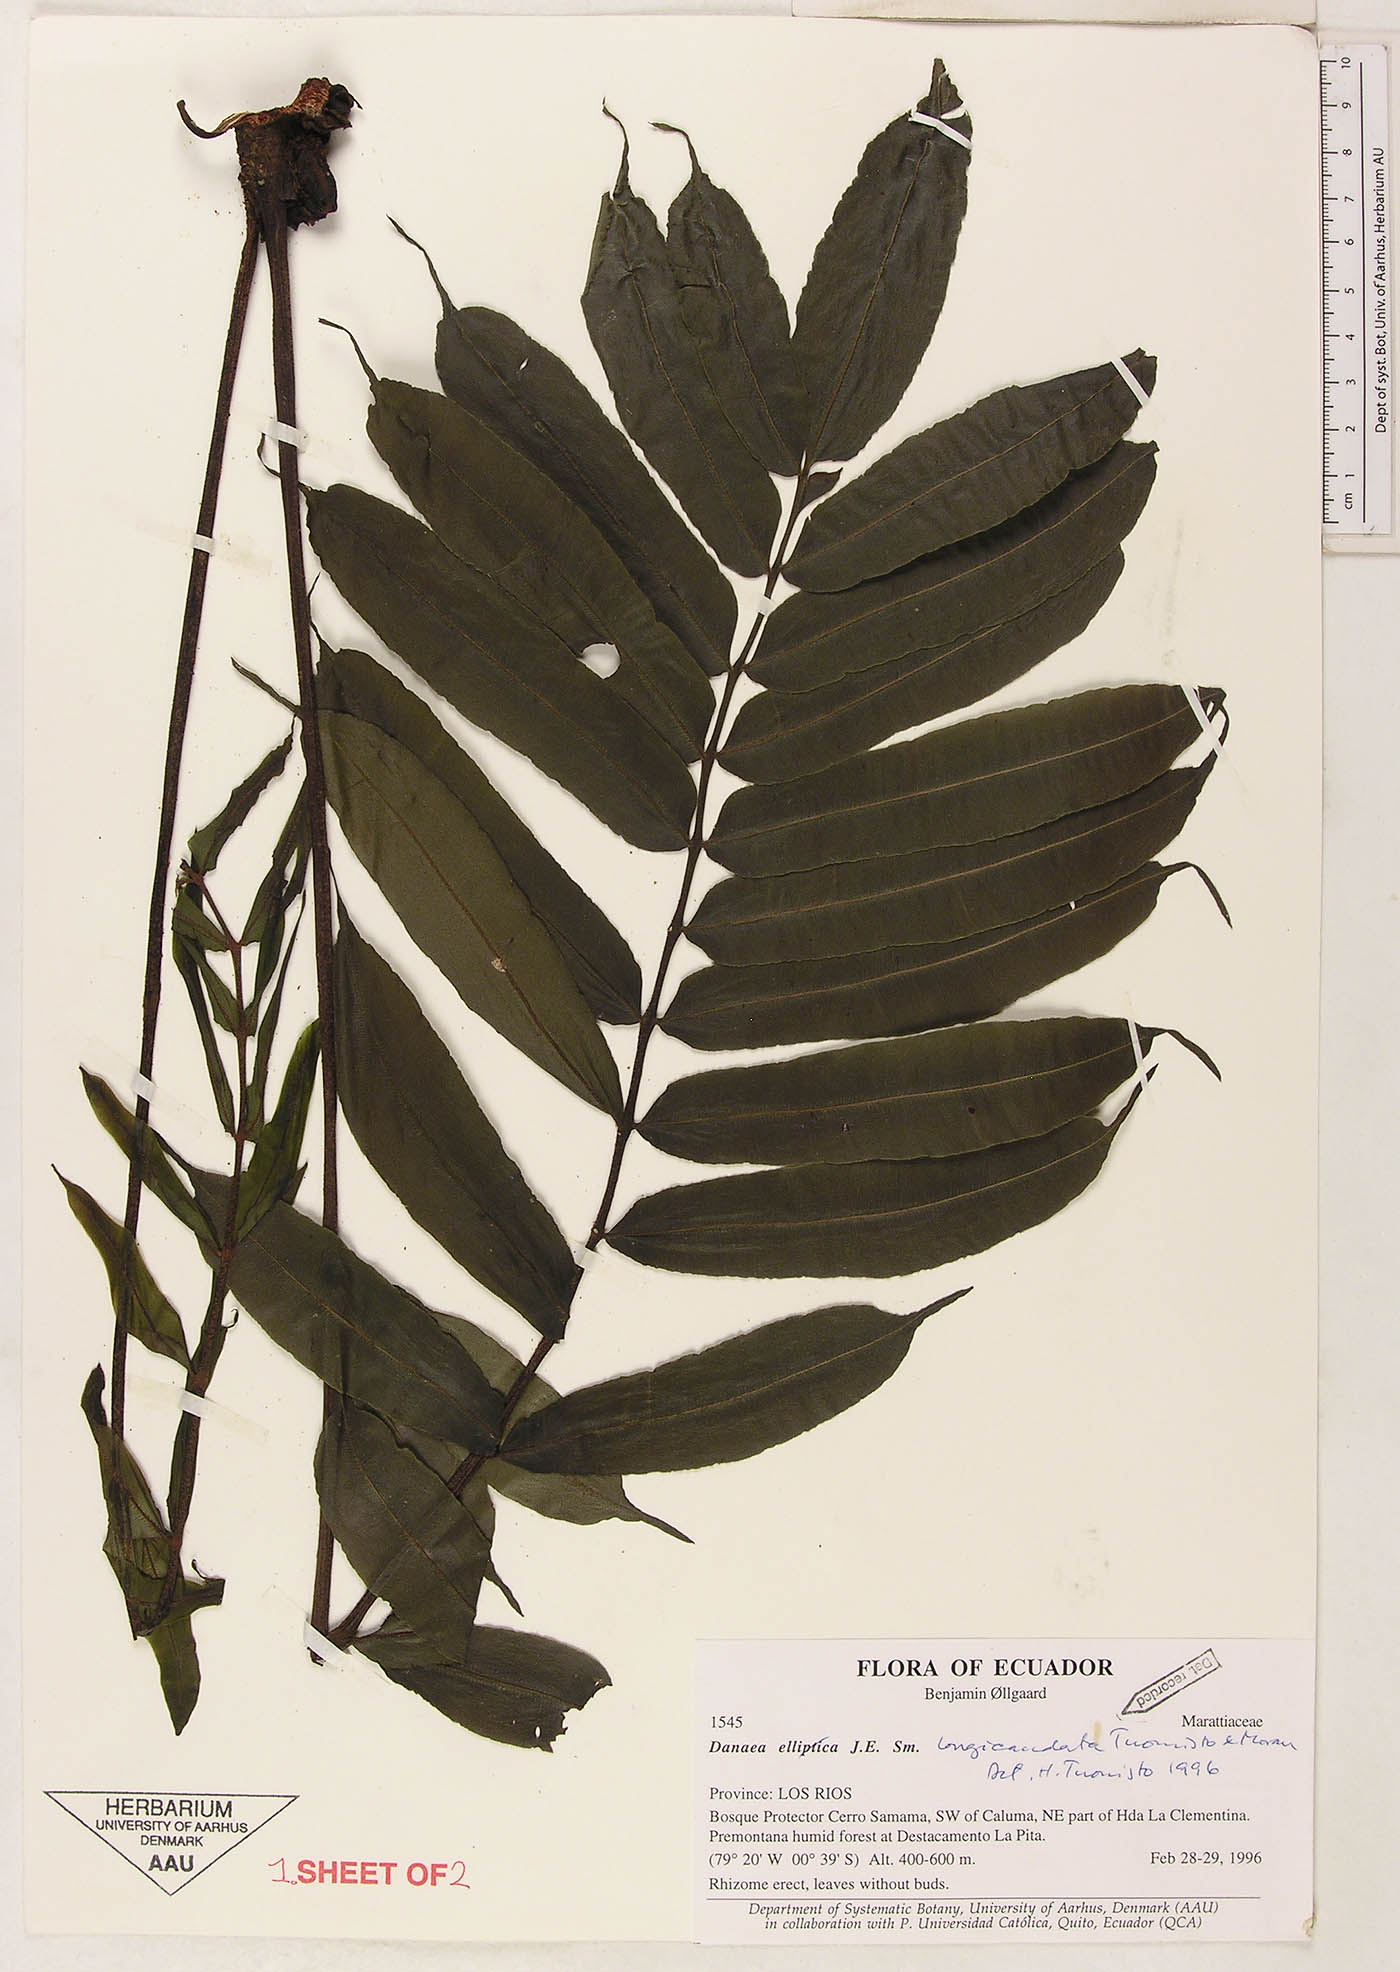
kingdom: Plantae
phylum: Tracheophyta
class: Polypodiopsida
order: Marattiales
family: Marattiaceae
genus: Danaea
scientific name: Danaea nodosa
